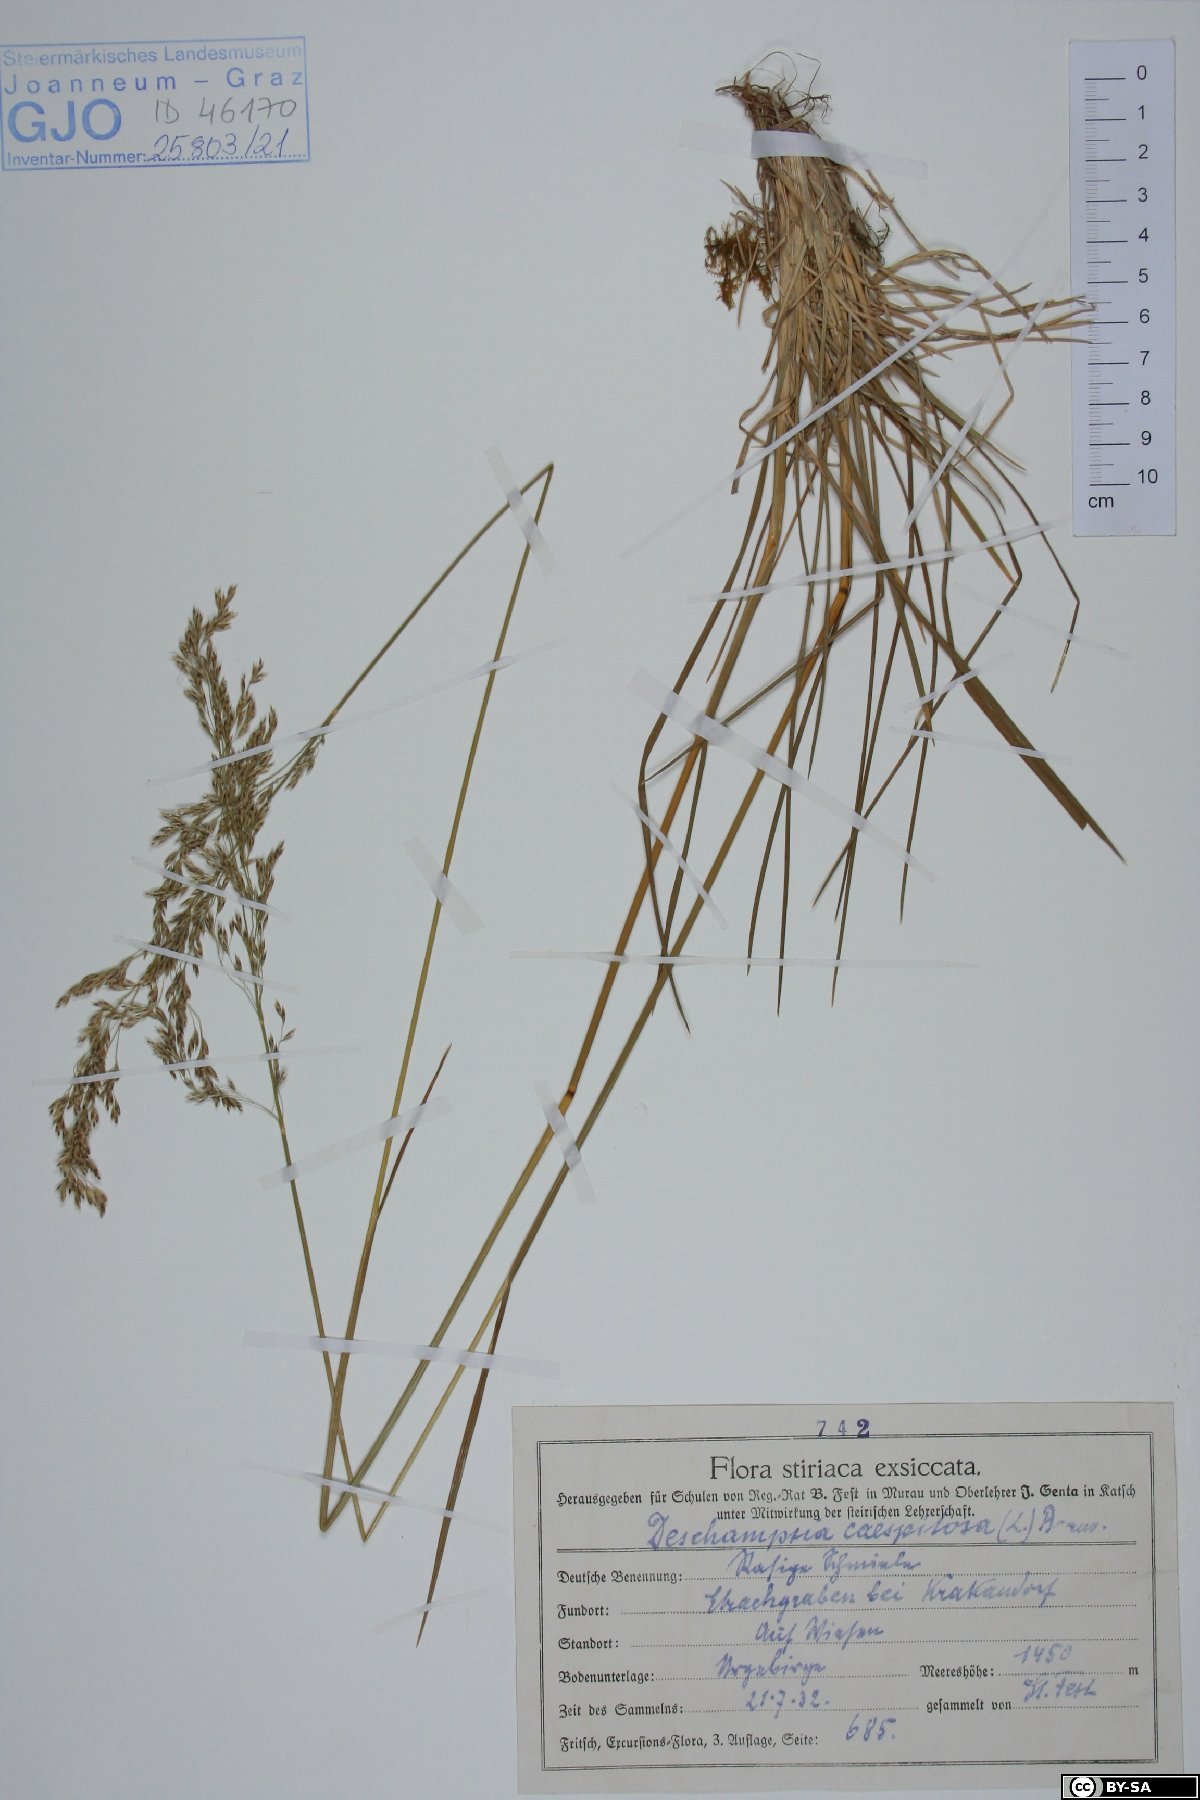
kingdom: Plantae
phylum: Tracheophyta
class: Liliopsida
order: Poales
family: Poaceae
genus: Deschampsia
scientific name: Deschampsia cespitosa
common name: Tufted hair-grass
